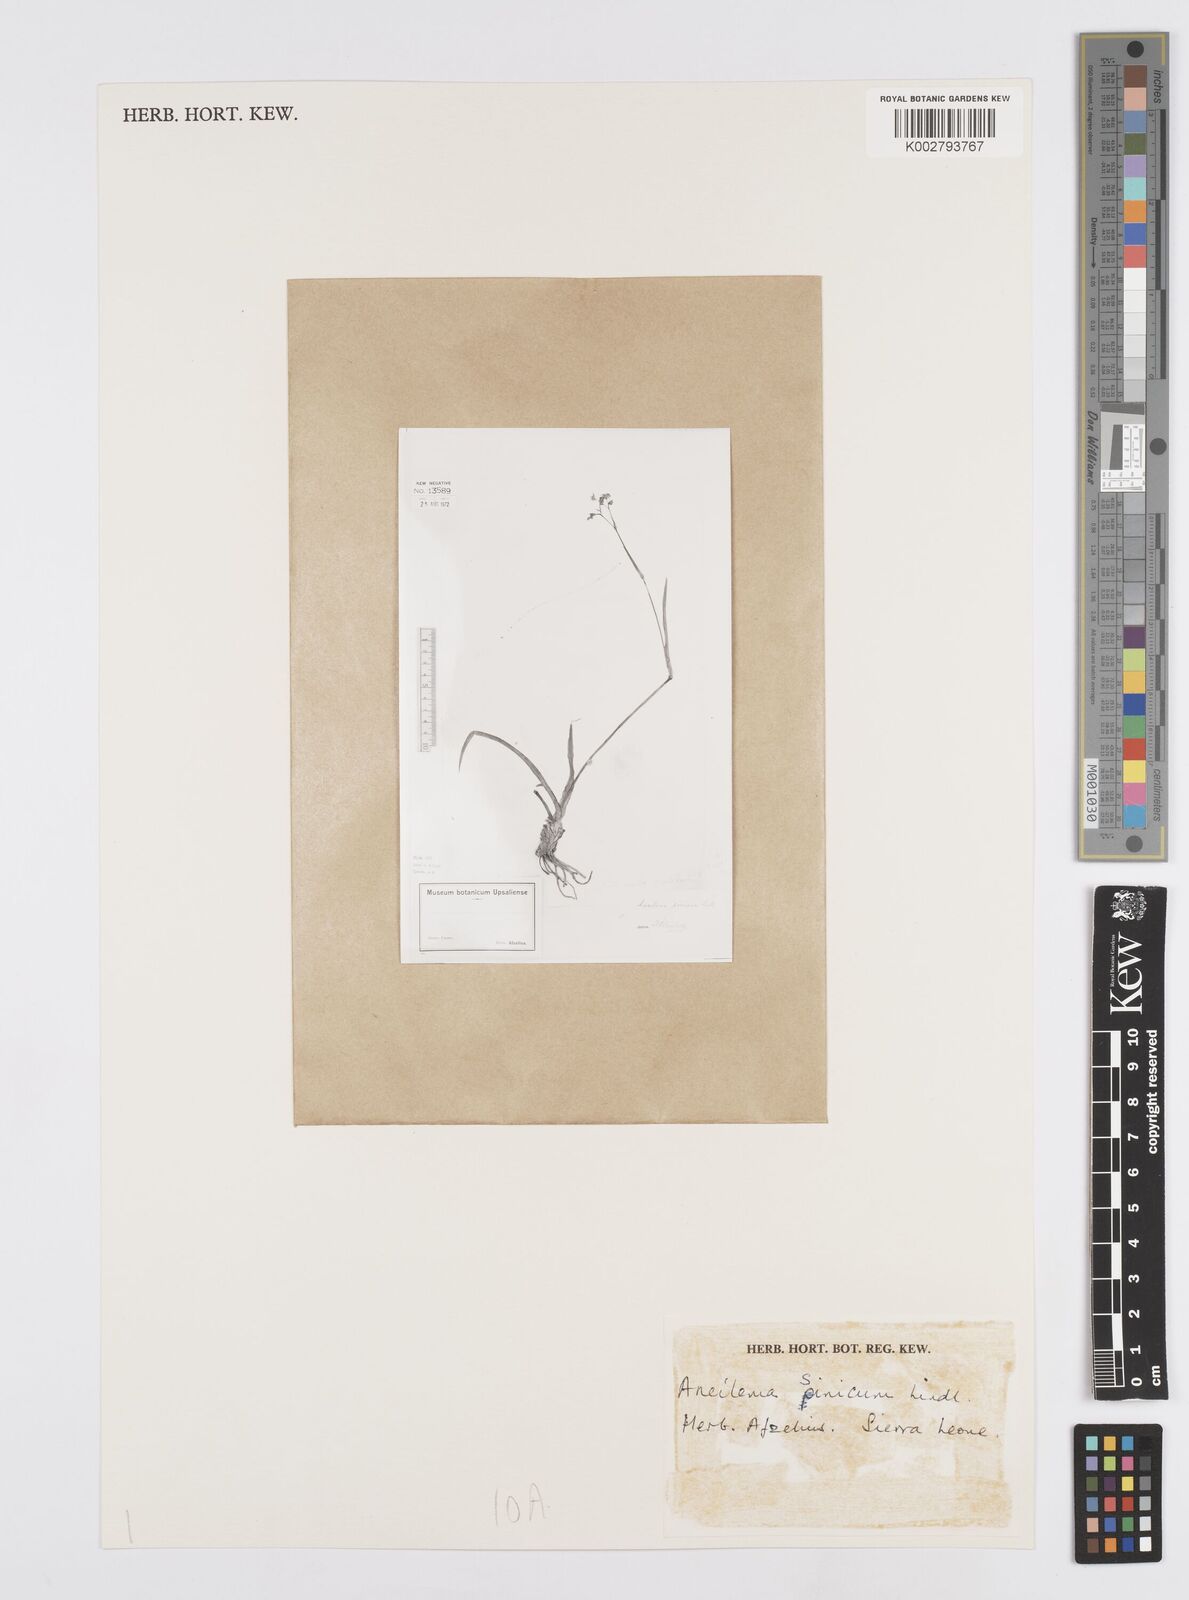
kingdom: Plantae
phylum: Tracheophyta
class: Liliopsida
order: Commelinales
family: Commelinaceae
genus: Murdannia
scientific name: Murdannia simplex
